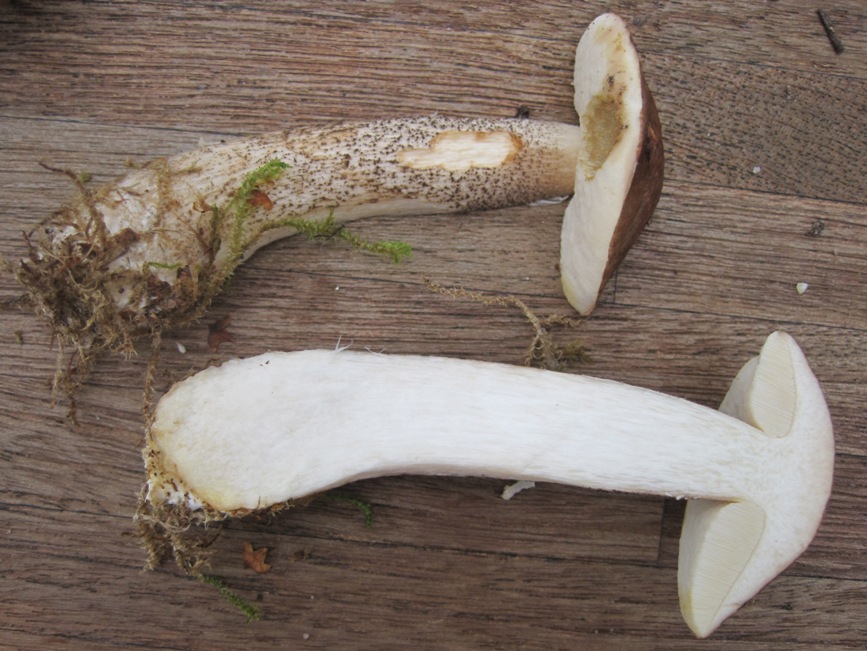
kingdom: Fungi
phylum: Basidiomycota
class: Agaricomycetes
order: Boletales
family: Boletaceae
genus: Leccinum
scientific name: Leccinum schistophilum
